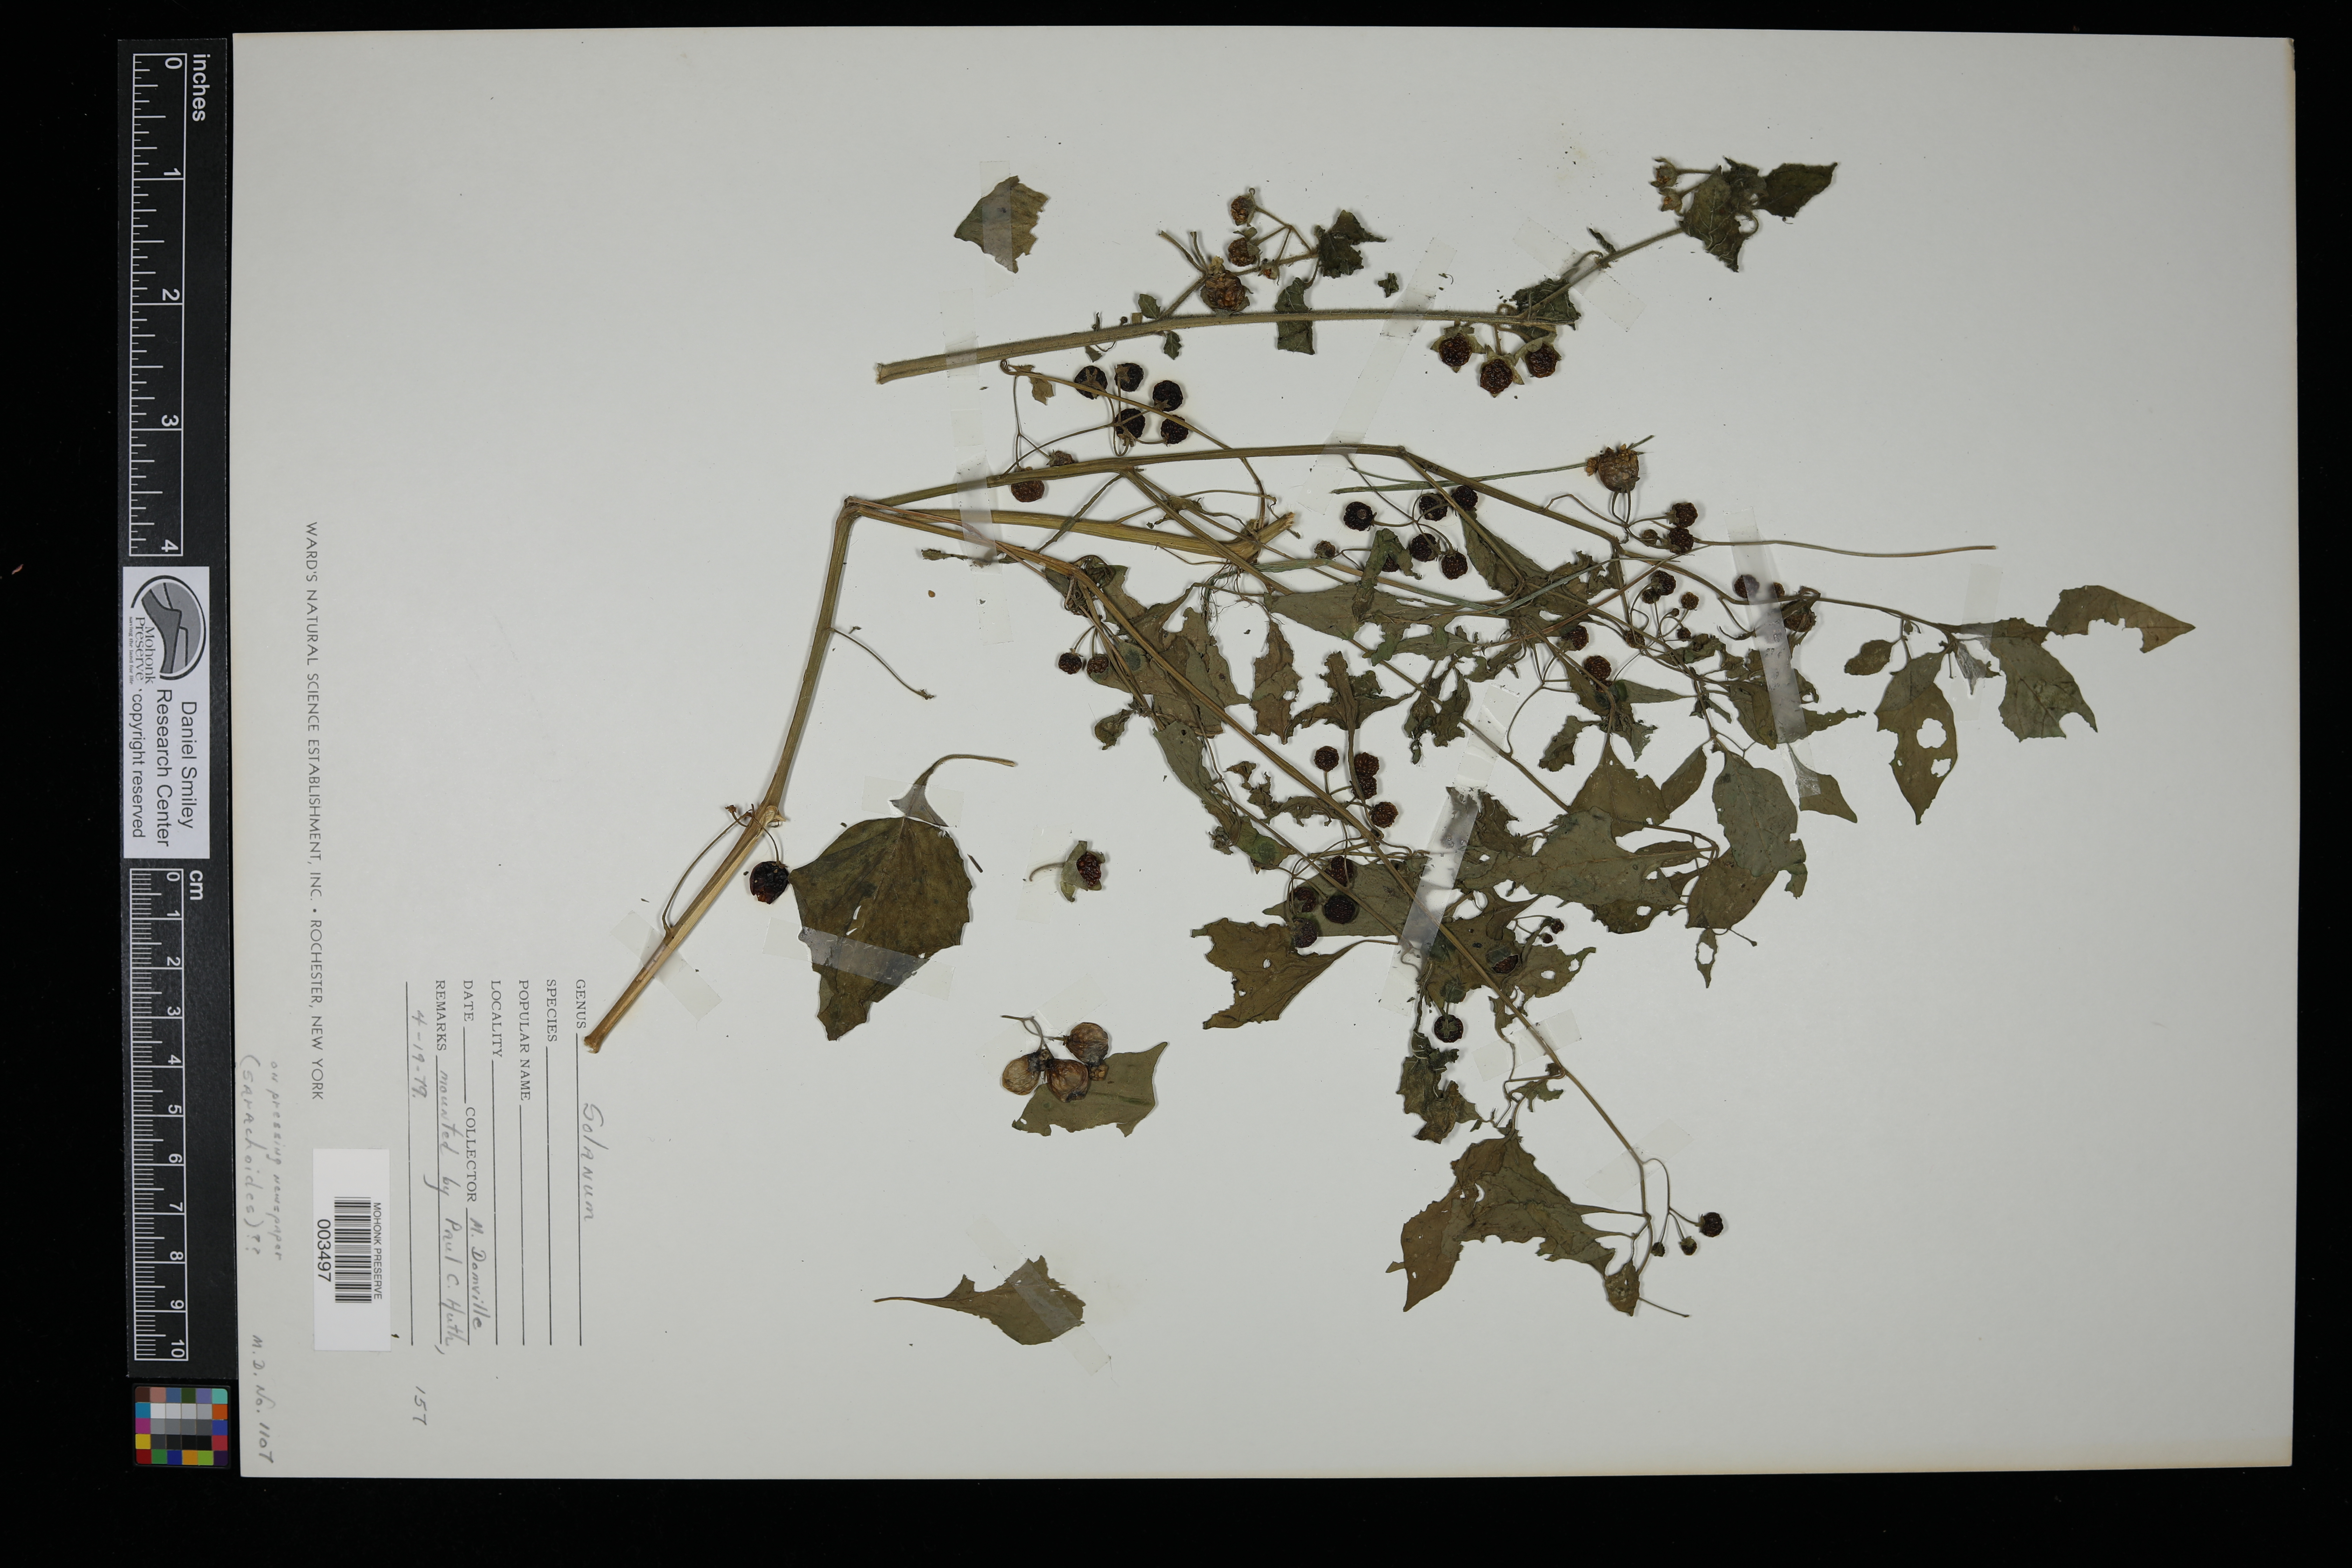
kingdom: Plantae
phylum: Tracheophyta
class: Magnoliopsida
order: Solanales
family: Solanaceae
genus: Solanum
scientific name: Solanum sarrachoides
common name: Leafy-fruited nightshade
